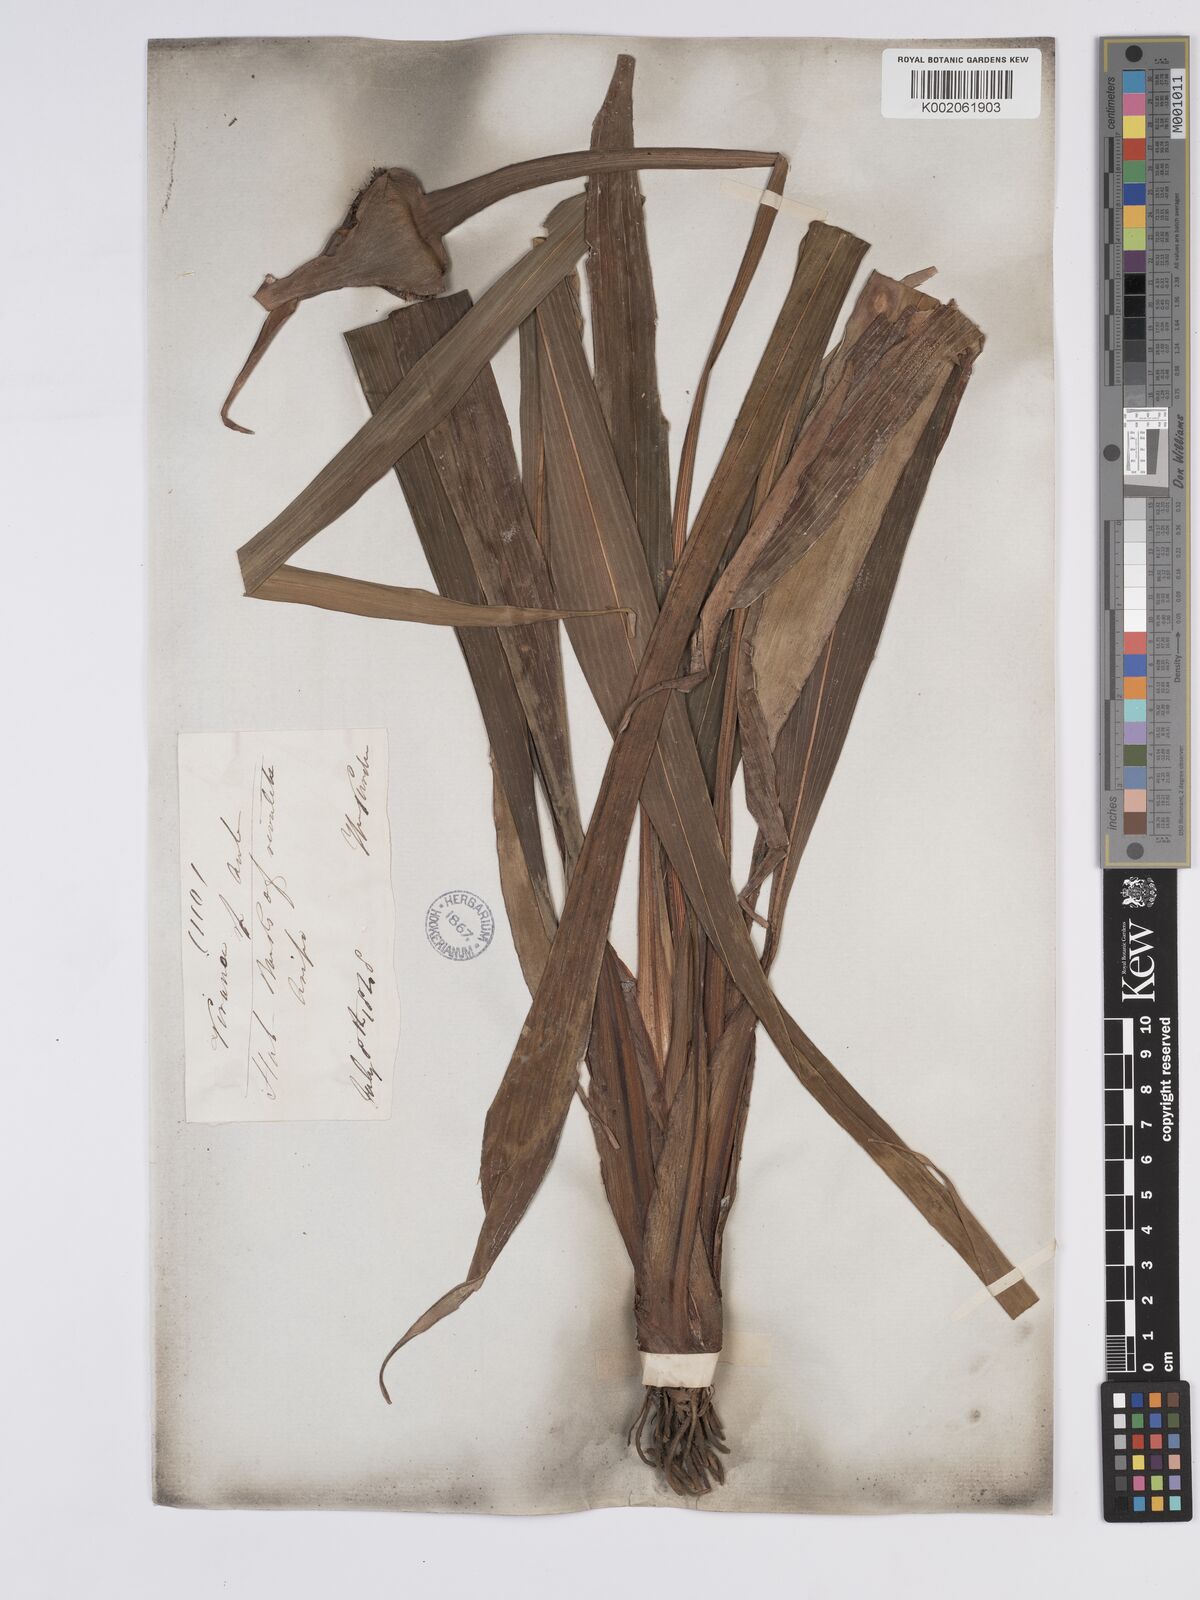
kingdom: Plantae
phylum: Tracheophyta
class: Liliopsida
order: Poales
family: Rapateaceae
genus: Rapatea
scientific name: Rapatea paludosa
